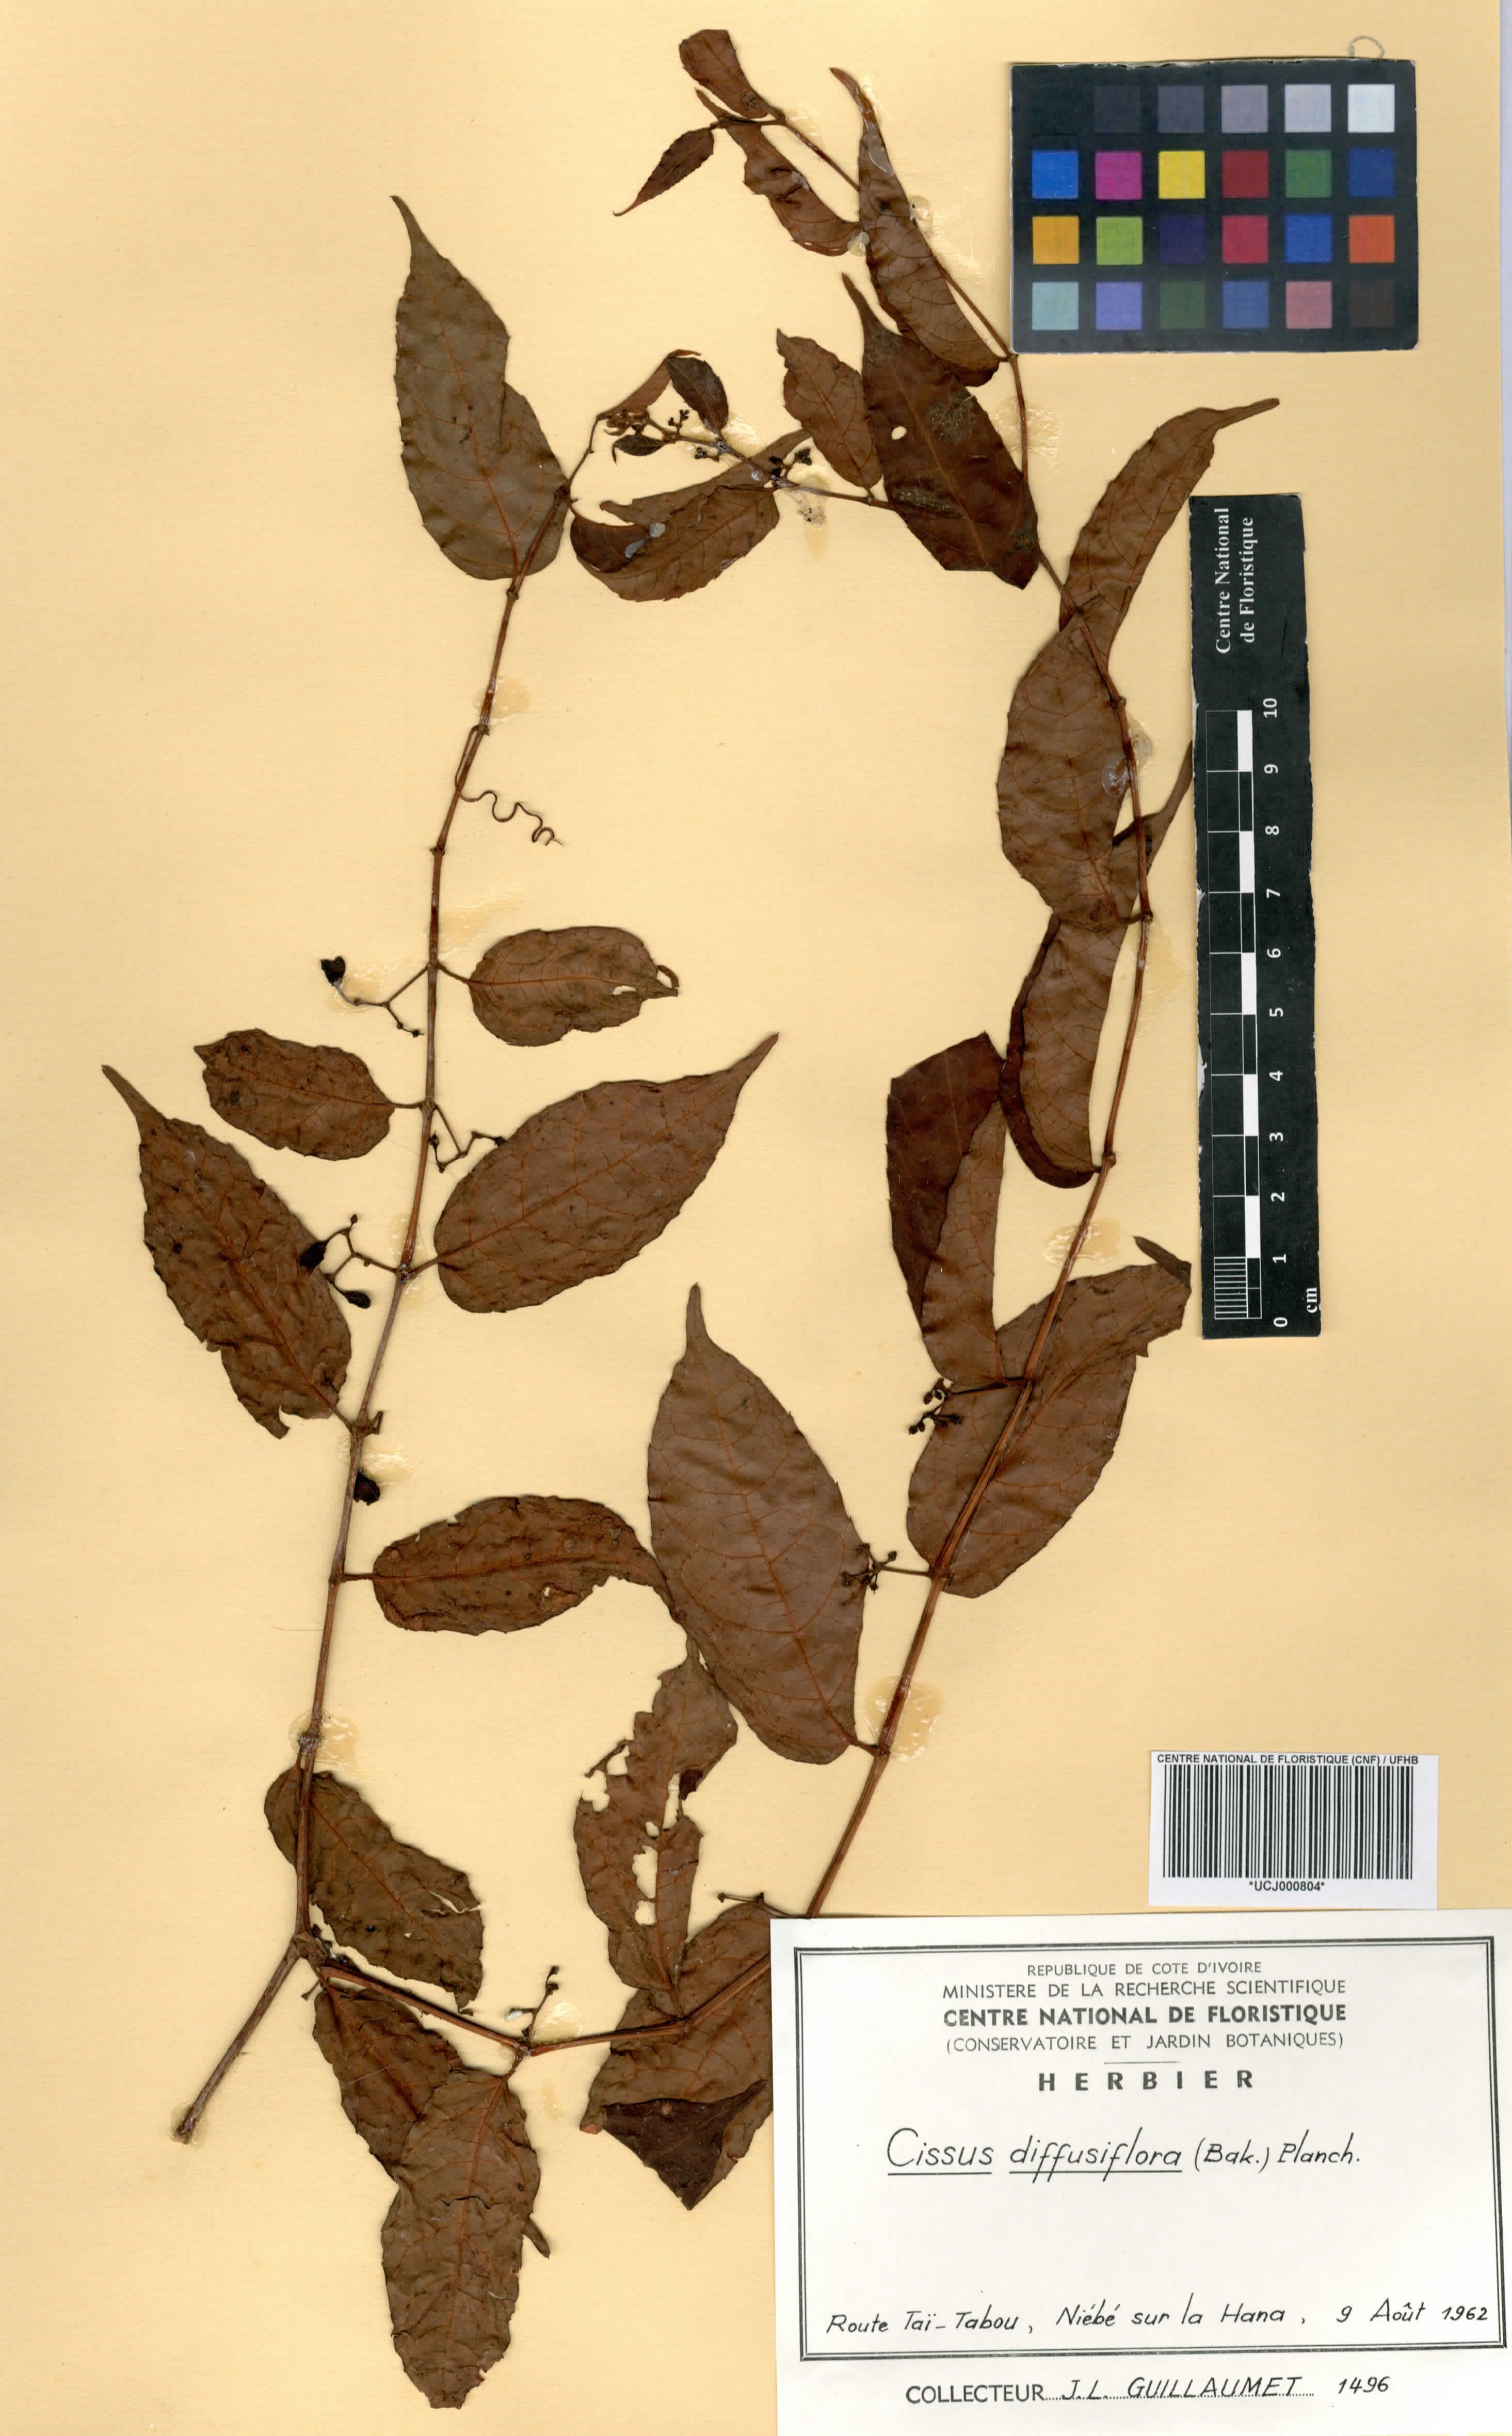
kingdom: Plantae
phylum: Tracheophyta
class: Magnoliopsida
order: Vitales
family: Vitaceae
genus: Cissus
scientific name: Cissus diffusiflora
